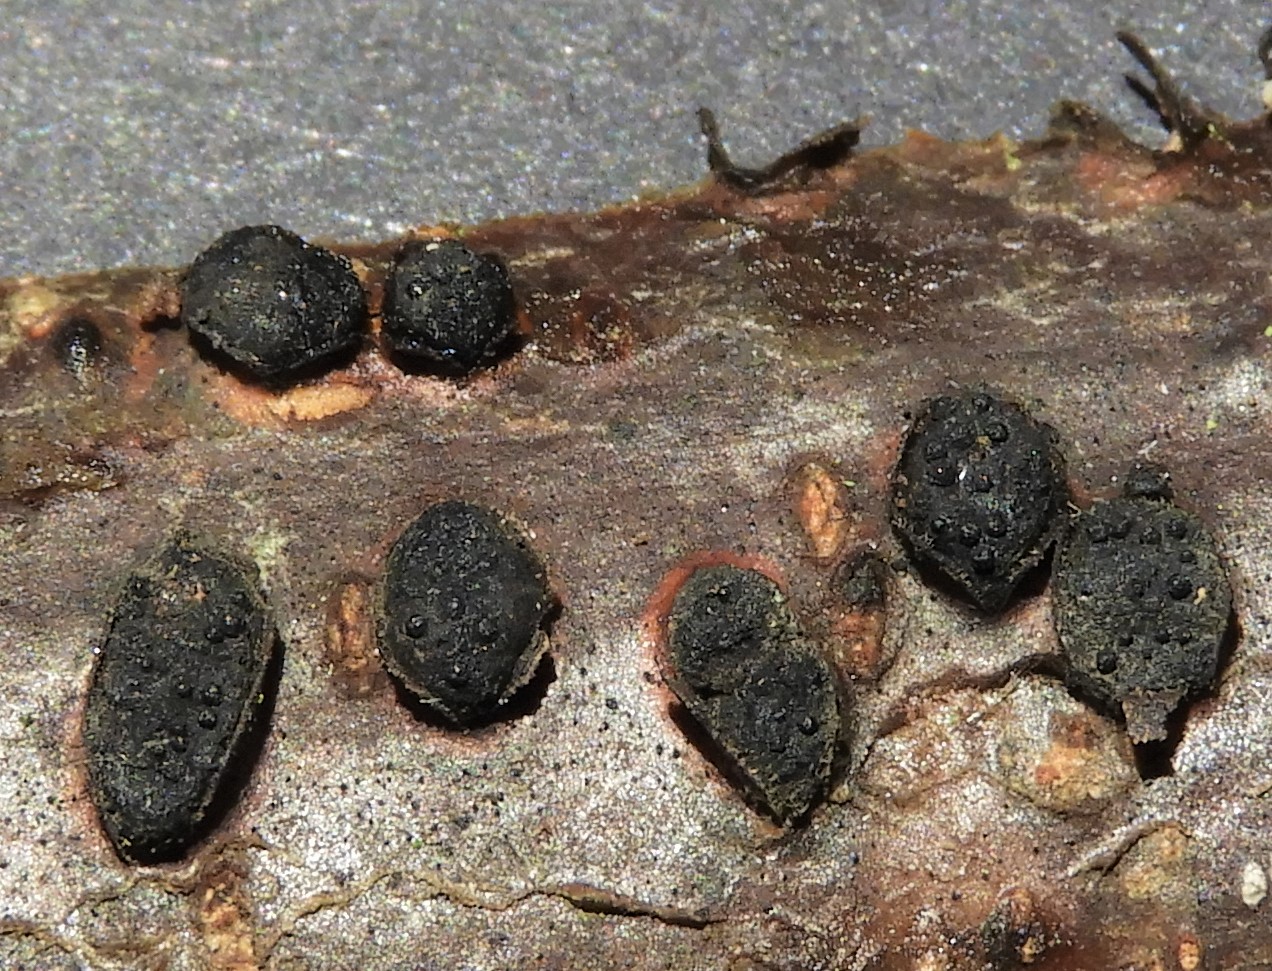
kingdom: Fungi
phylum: Ascomycota
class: Sordariomycetes
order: Xylariales
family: Diatrypaceae
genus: Diatrypella
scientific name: Diatrypella quercina
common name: ege-kulskorpe
